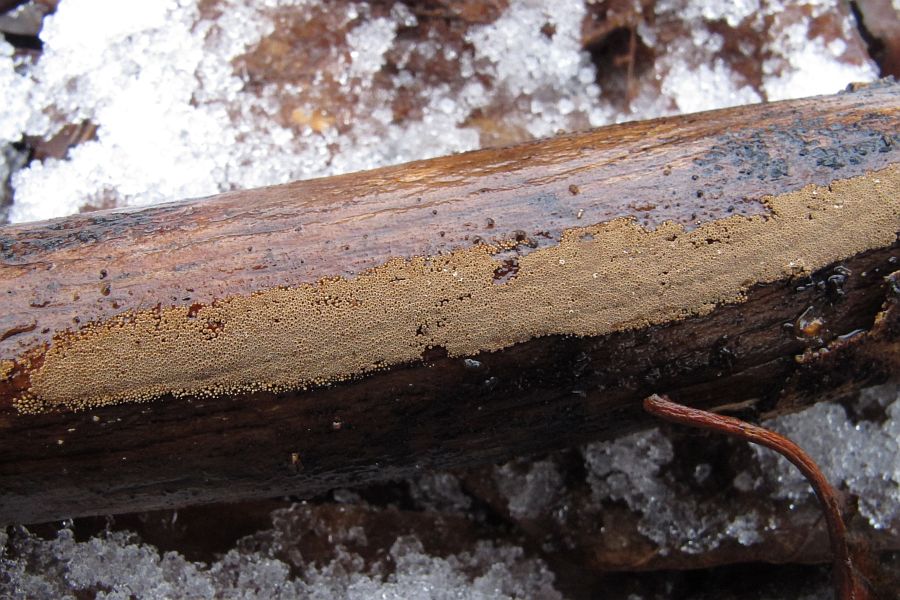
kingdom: Fungi
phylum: Basidiomycota
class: Agaricomycetes
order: Agaricales
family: Niaceae
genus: Merismodes
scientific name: Merismodes anomala
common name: almindelig læderskål
